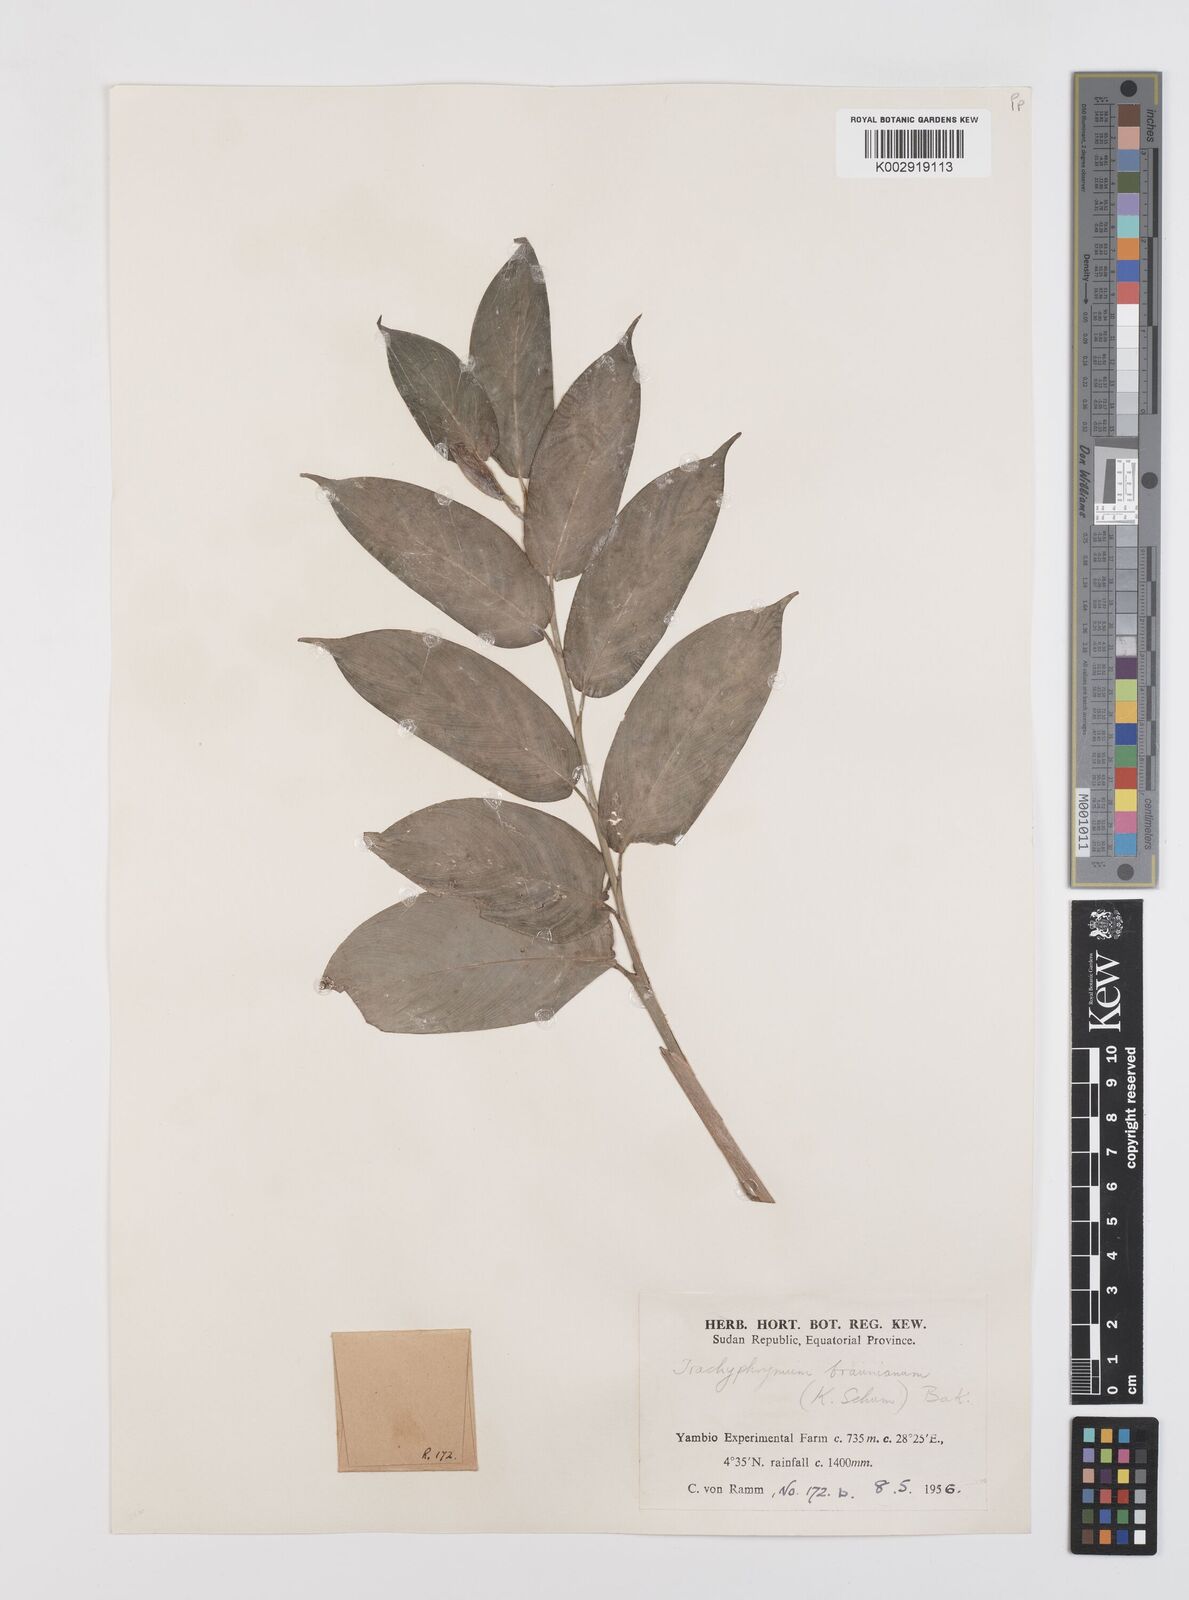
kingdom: Plantae
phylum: Tracheophyta
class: Liliopsida
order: Zingiberales
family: Marantaceae
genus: Trachyphrynium
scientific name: Trachyphrynium braunianum
